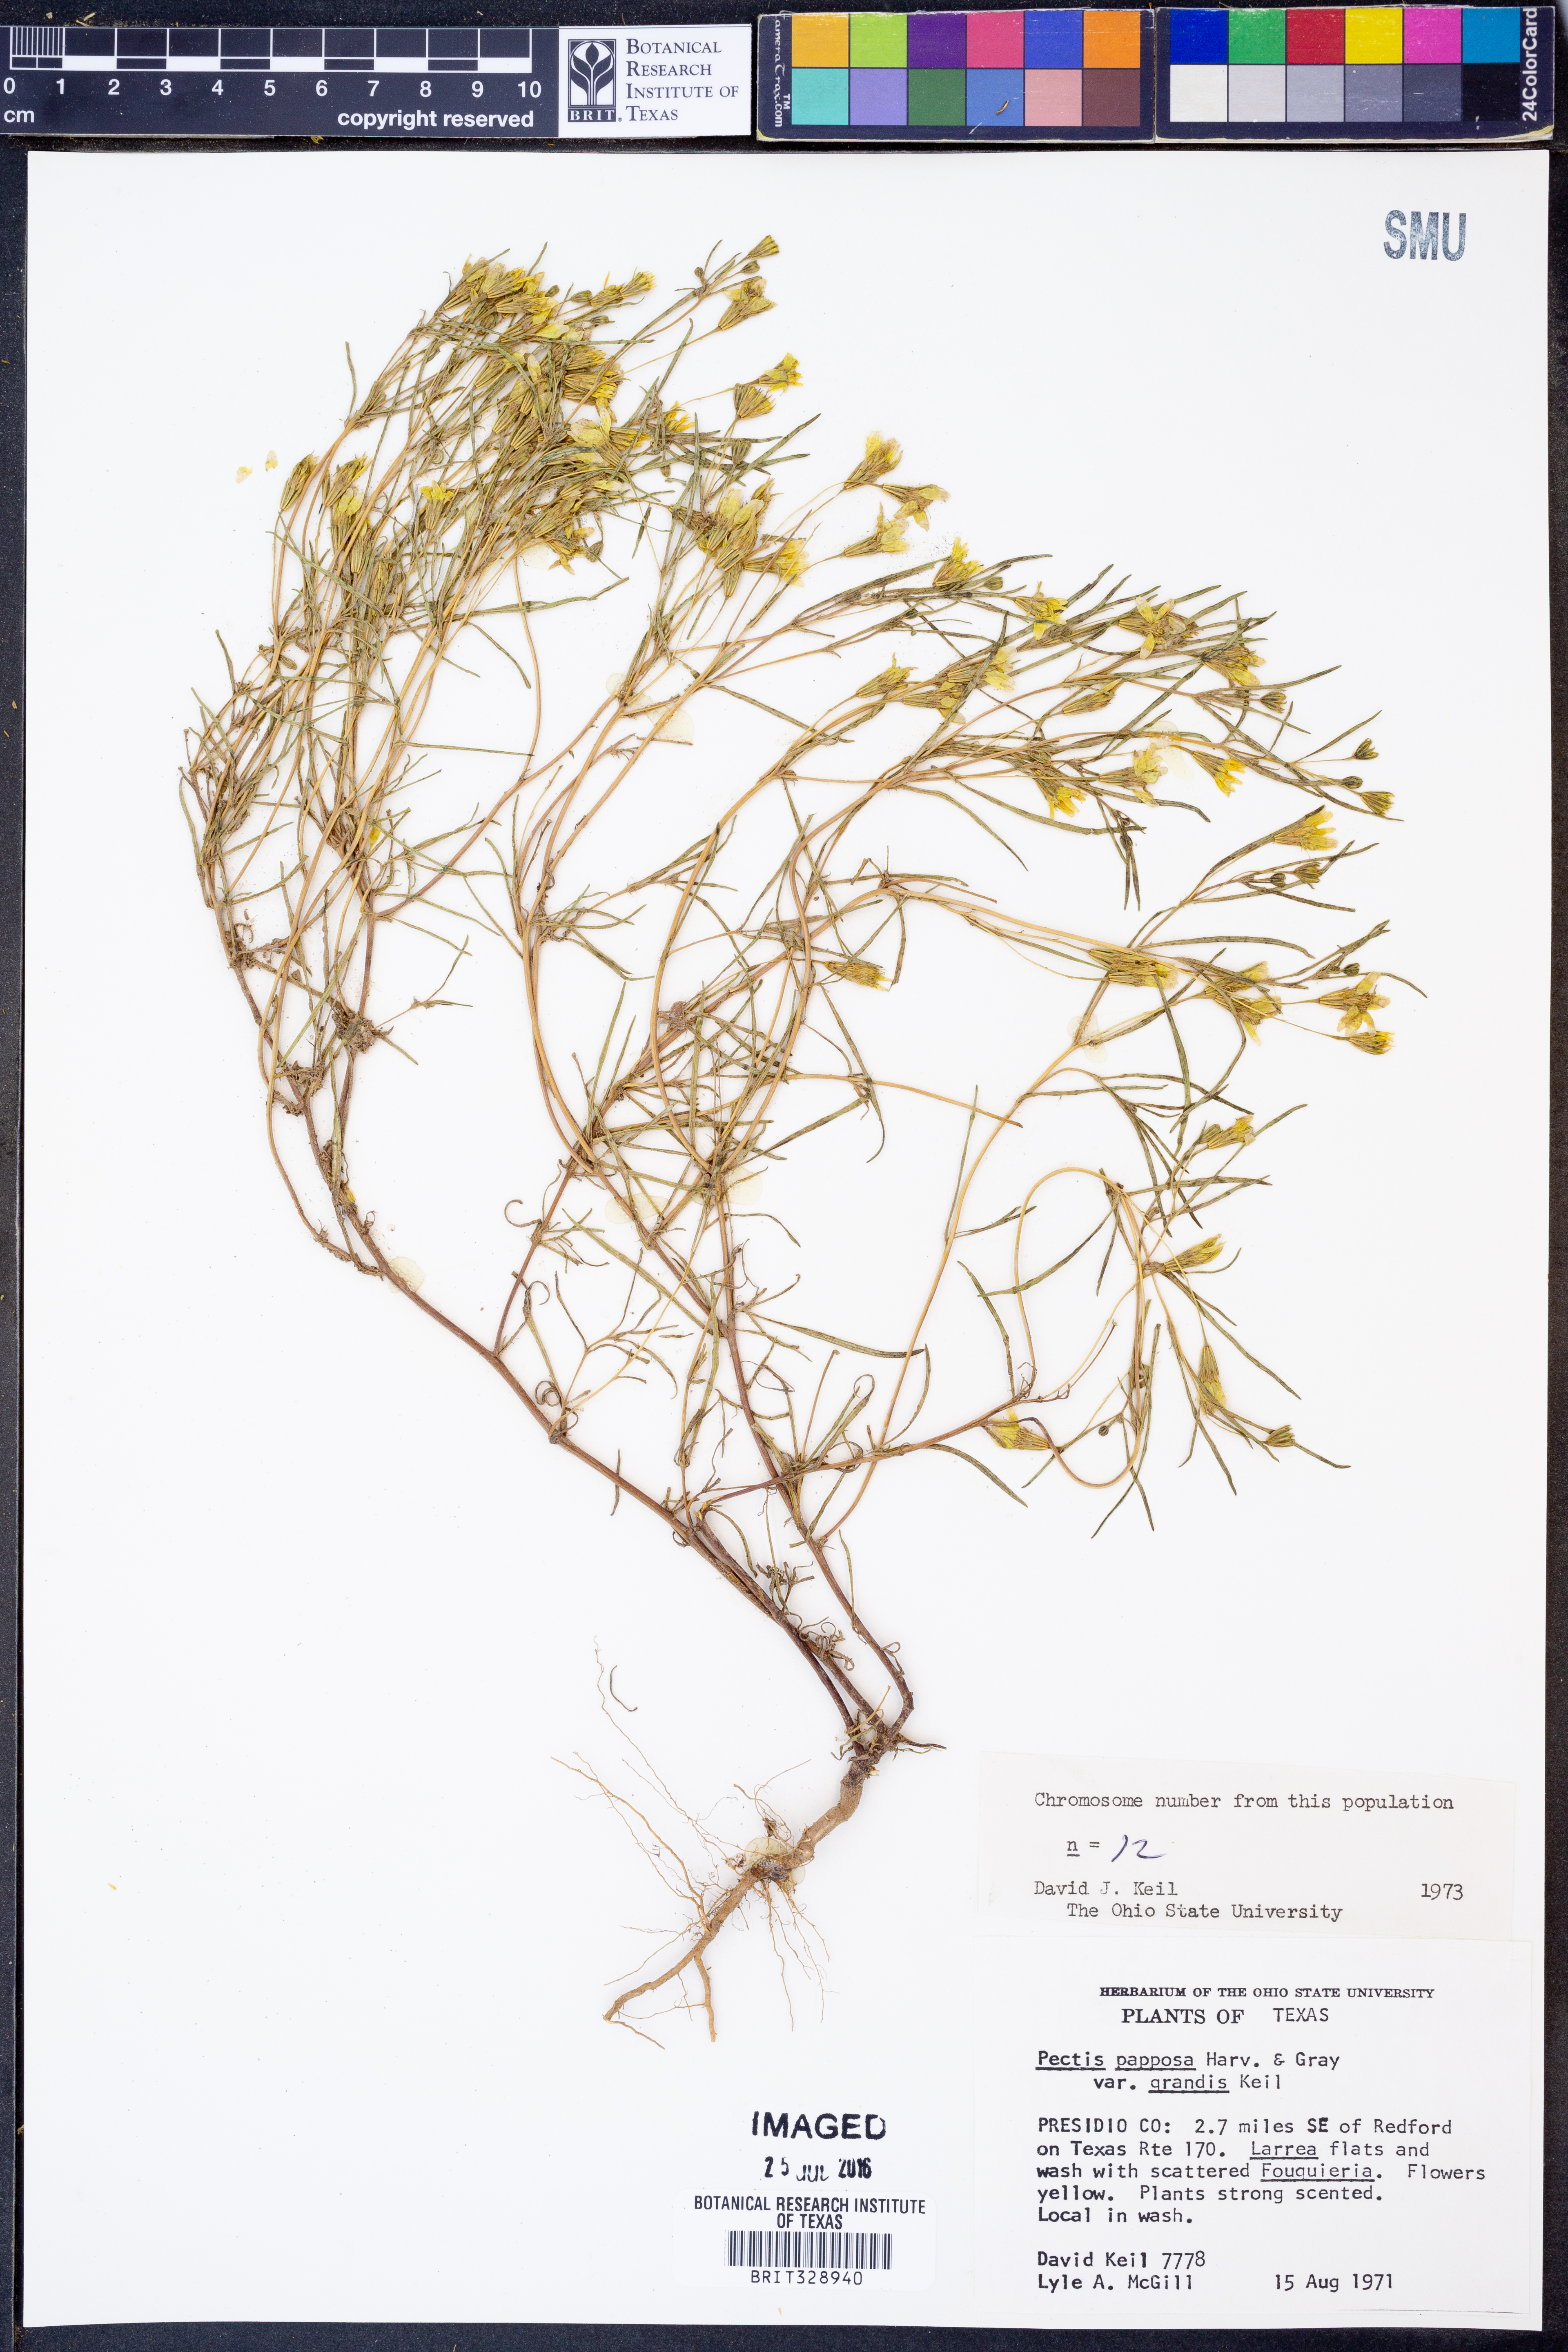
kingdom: Plantae
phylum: Tracheophyta
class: Magnoliopsida
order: Asterales
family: Asteraceae
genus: Pectis
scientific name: Pectis papposa
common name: Many-bristle chinchweed
